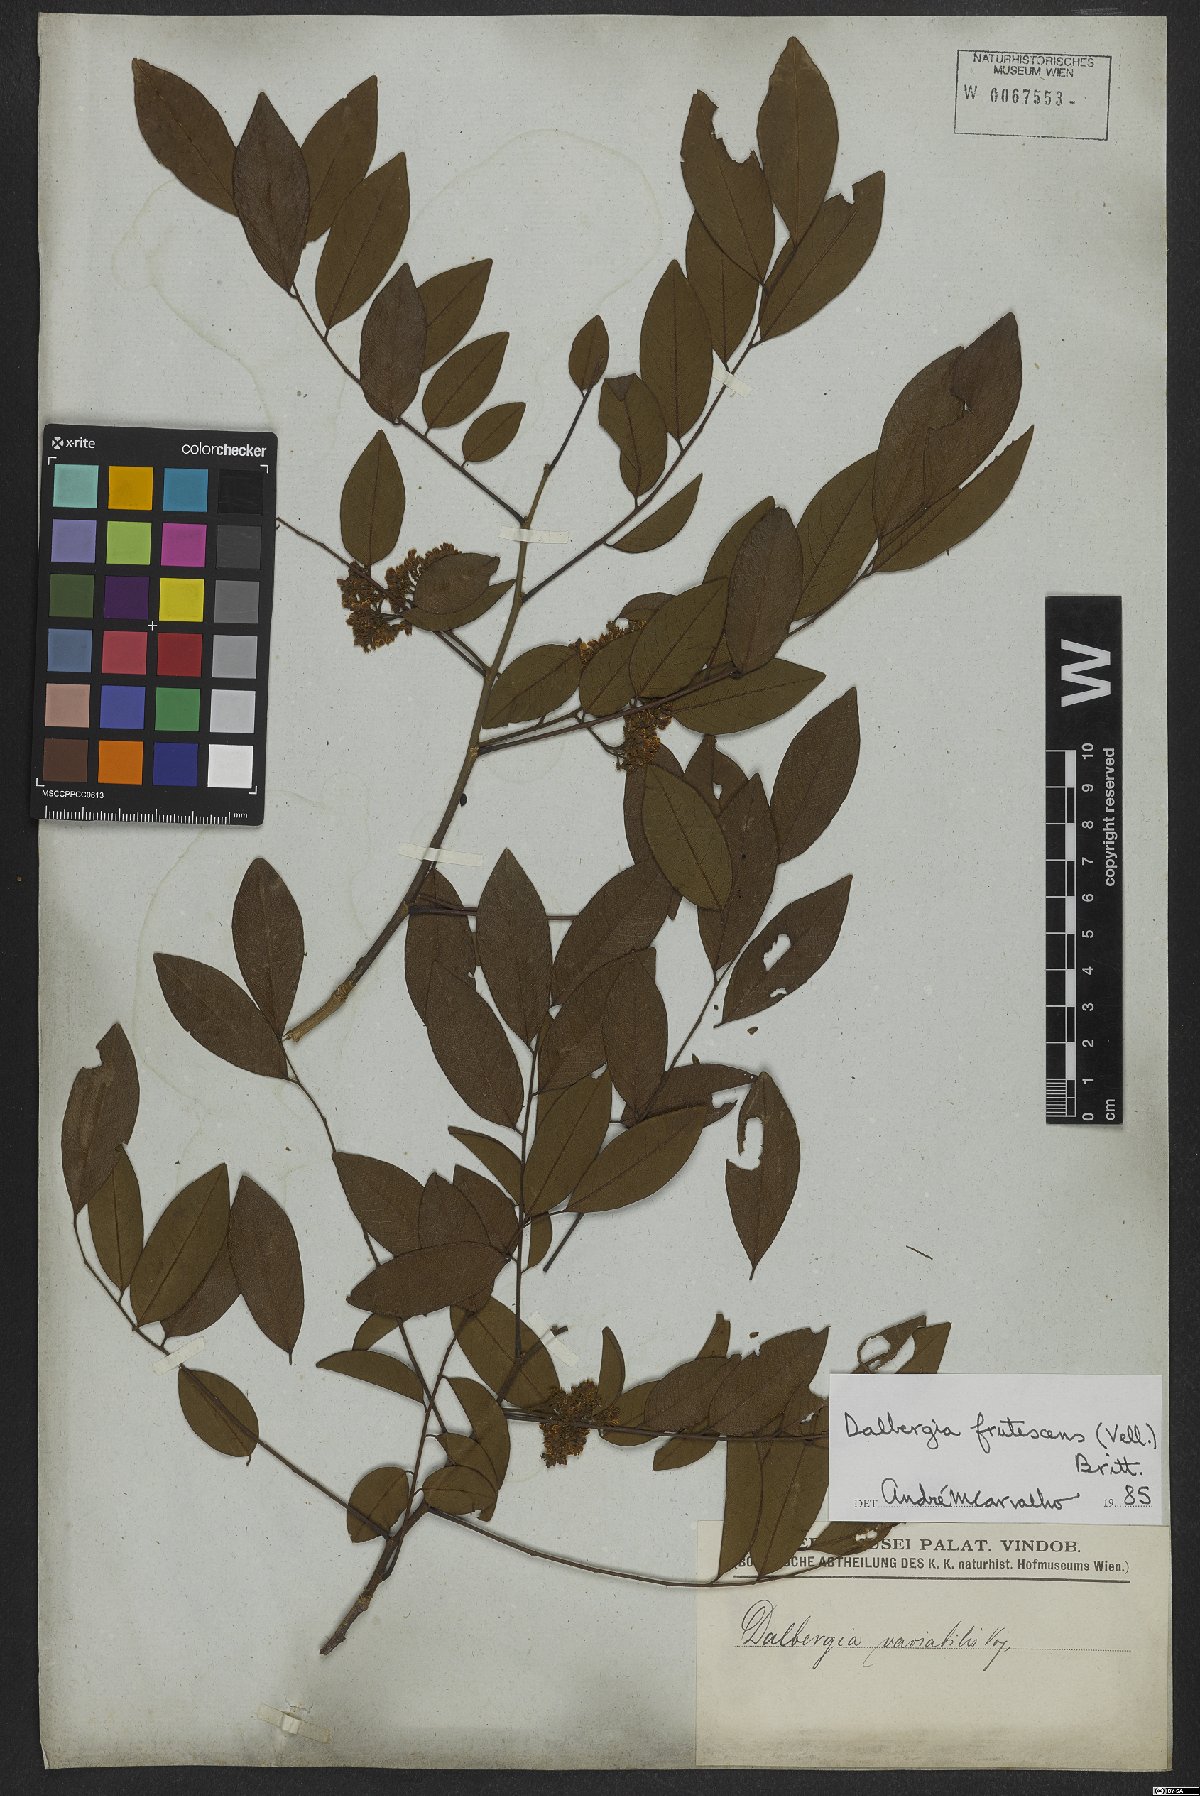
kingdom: Plantae
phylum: Tracheophyta
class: Magnoliopsida
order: Fabales
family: Fabaceae
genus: Dalbergia
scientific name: Dalbergia frutescens
